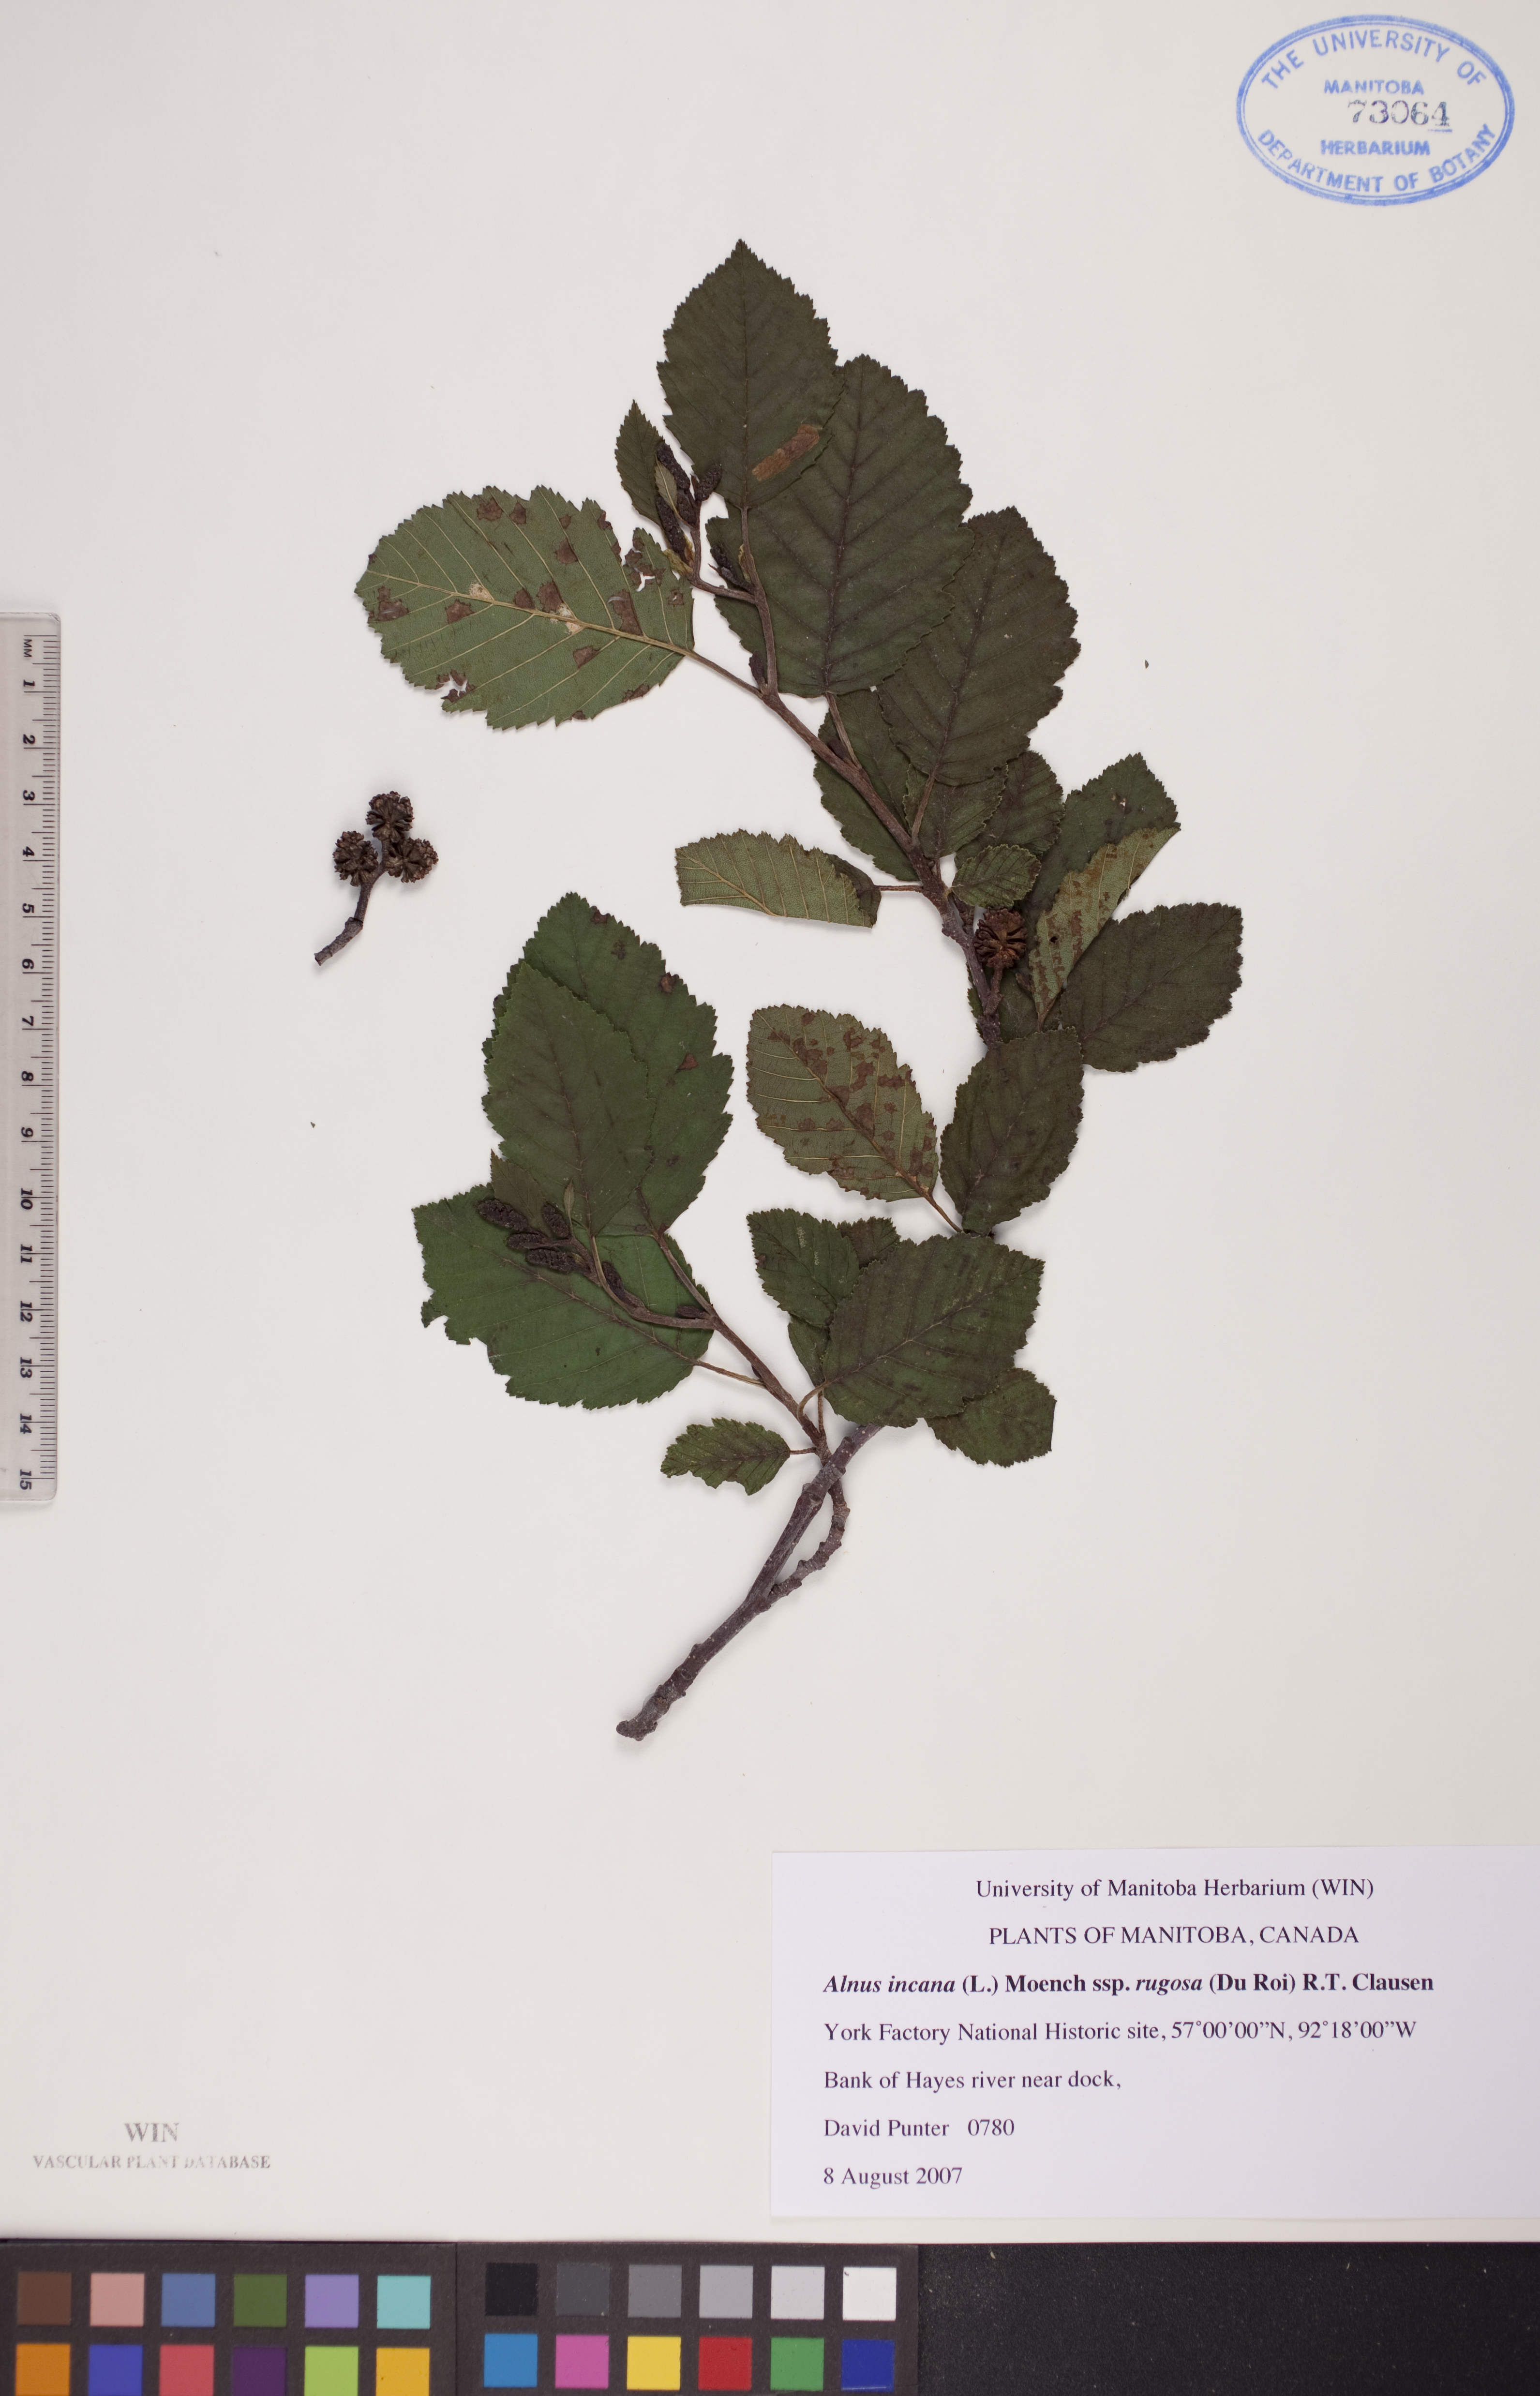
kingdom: Plantae
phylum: Tracheophyta
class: Magnoliopsida
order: Fagales
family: Betulaceae
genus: Alnus
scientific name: Alnus incana
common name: Grey alder
